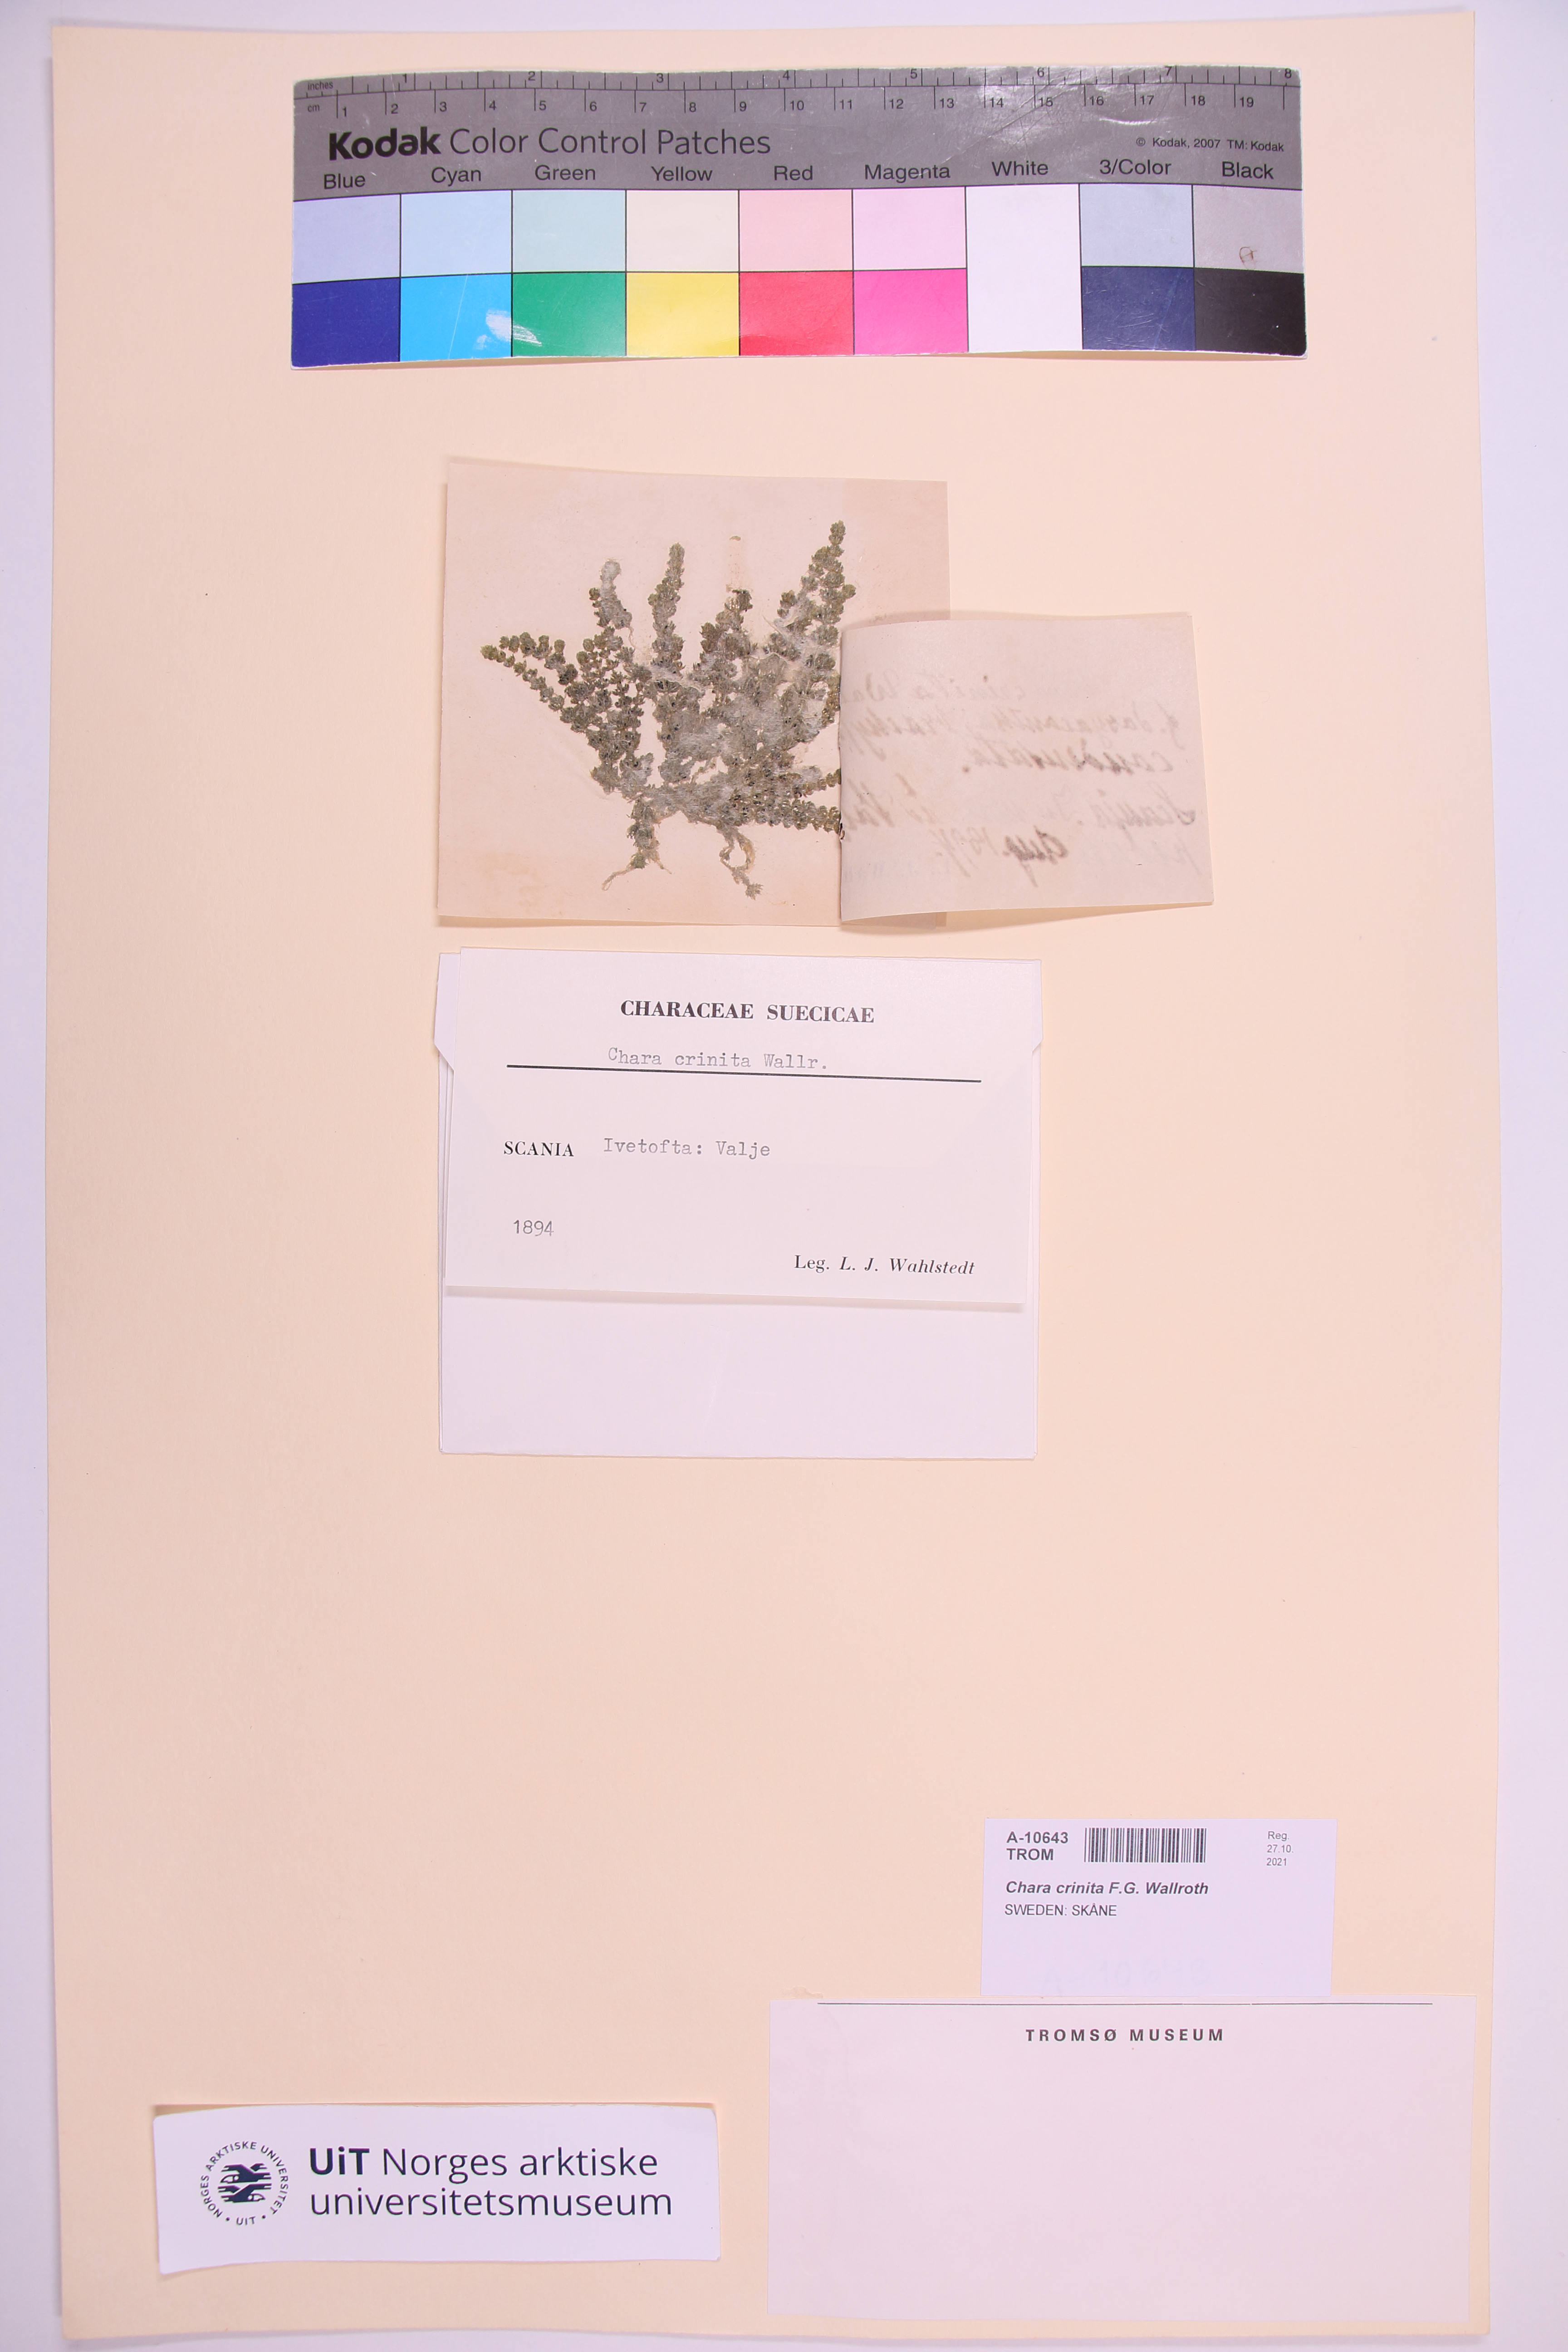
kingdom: Plantae
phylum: Charophyta
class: Charophyceae
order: Charales
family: Characeae
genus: Chara
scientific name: Chara canescens
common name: Bearded stonewort
